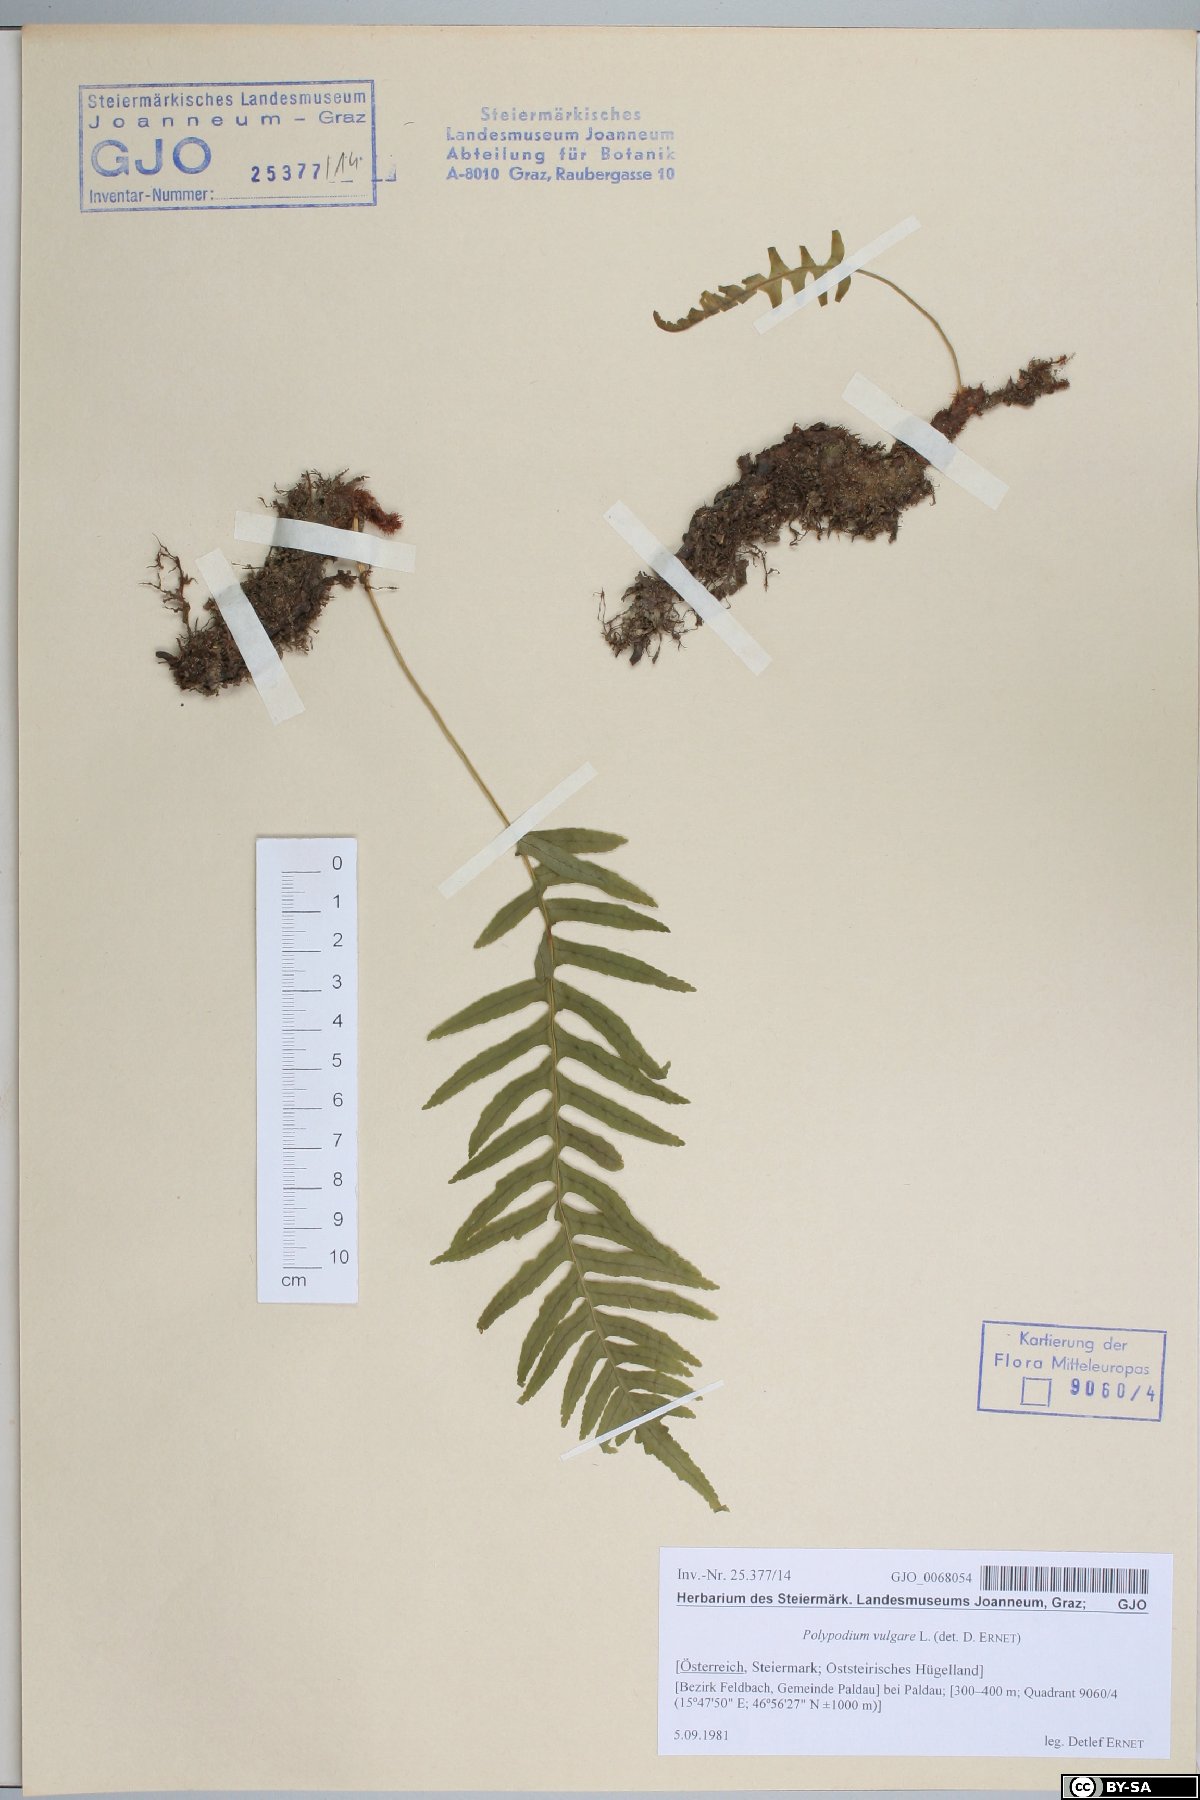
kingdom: Plantae
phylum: Tracheophyta
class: Polypodiopsida
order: Polypodiales
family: Polypodiaceae
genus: Polypodium
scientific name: Polypodium vulgare
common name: Common polypody
